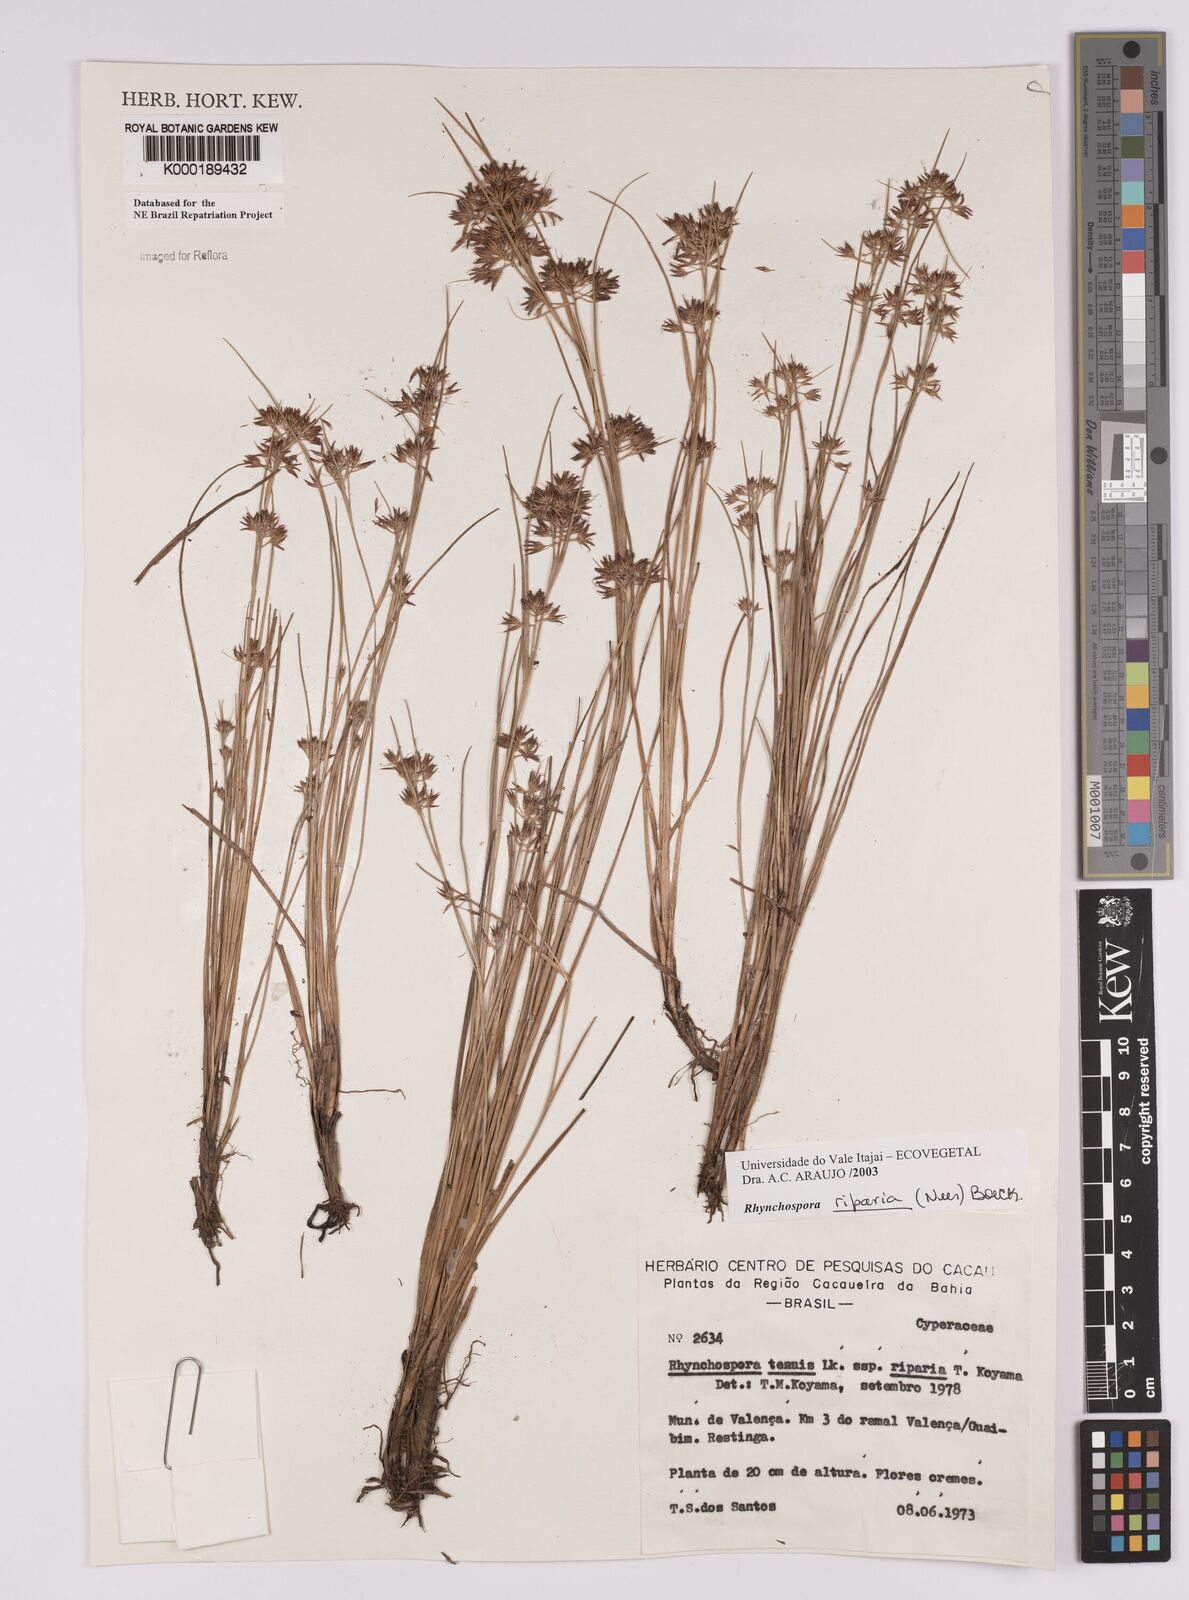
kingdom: Plantae
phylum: Tracheophyta
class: Liliopsida
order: Poales
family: Cyperaceae
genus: Rhynchospora
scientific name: Rhynchospora riparia
